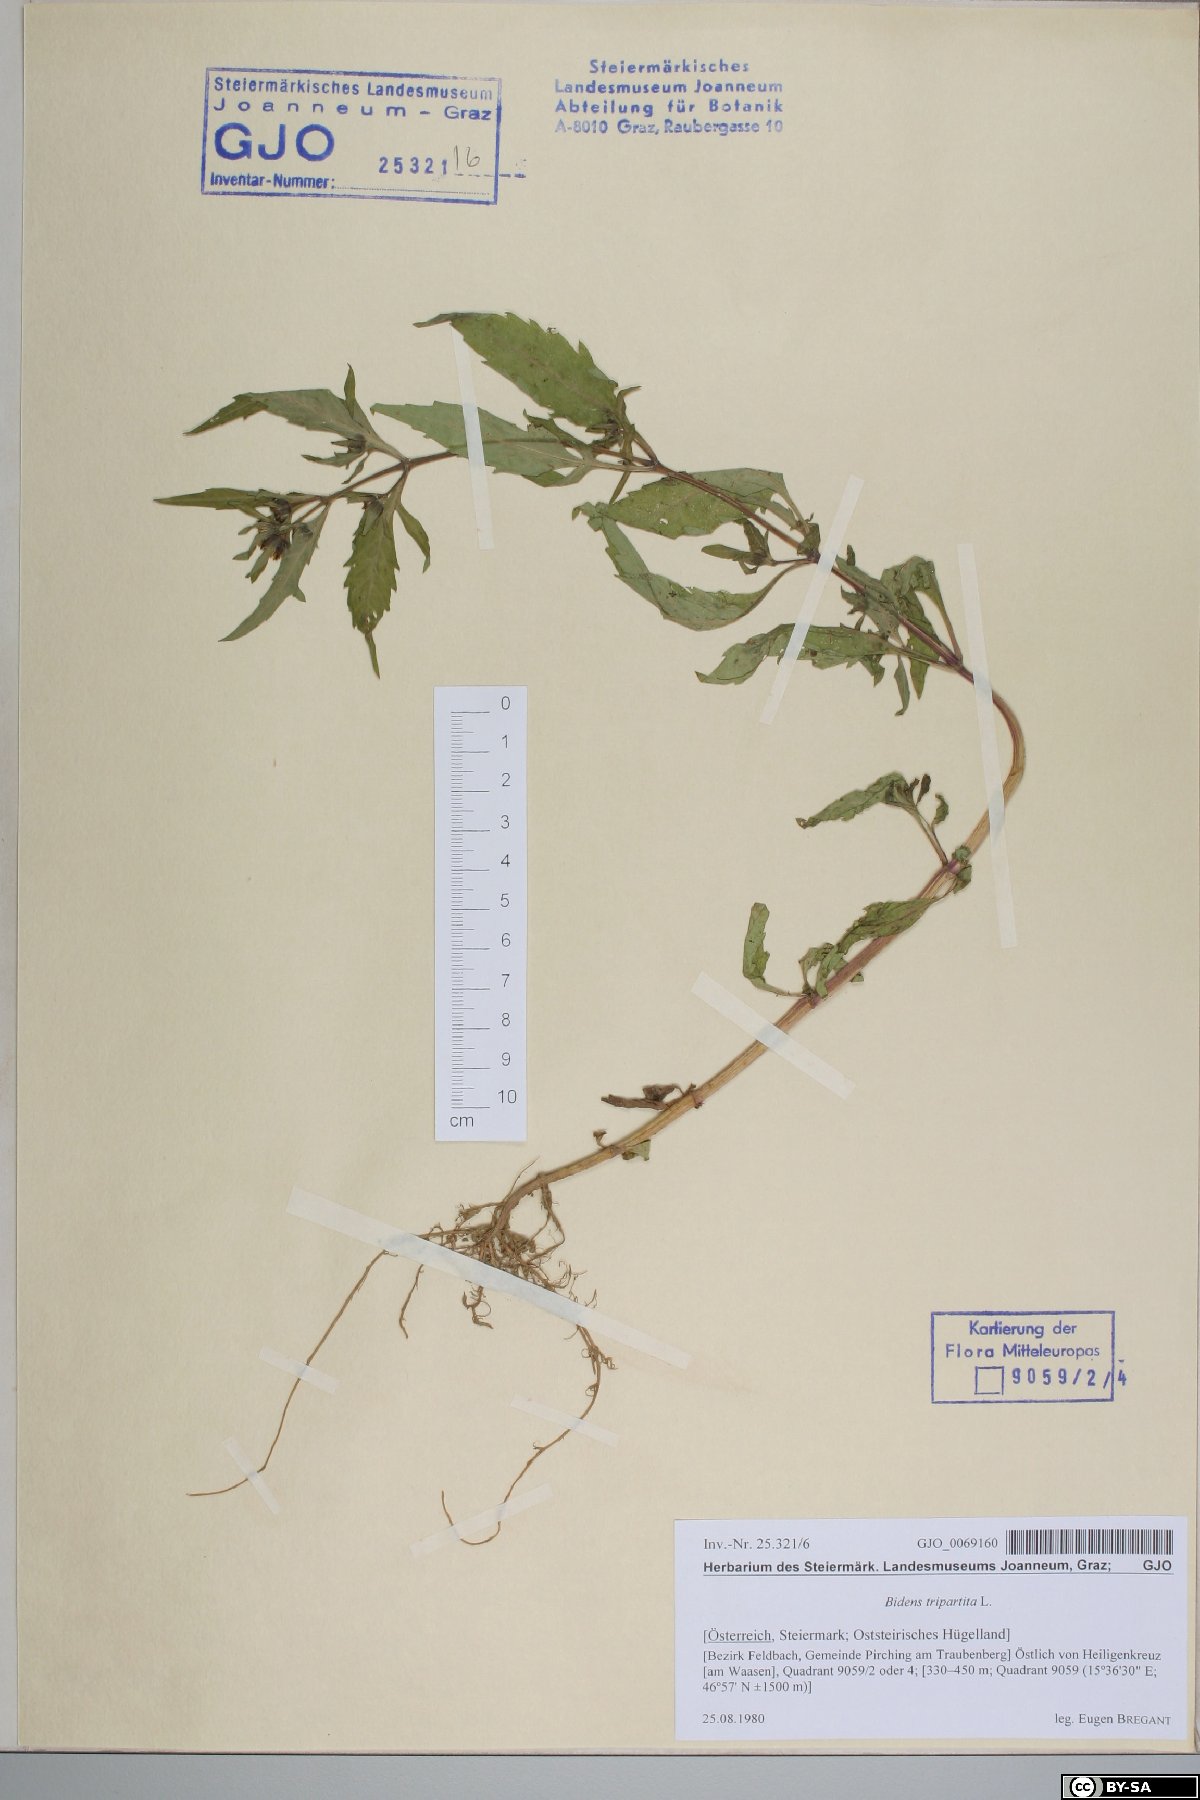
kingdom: Plantae
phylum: Tracheophyta
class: Magnoliopsida
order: Asterales
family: Asteraceae
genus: Bidens
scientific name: Bidens tripartita
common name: Trifid bur-marigold
